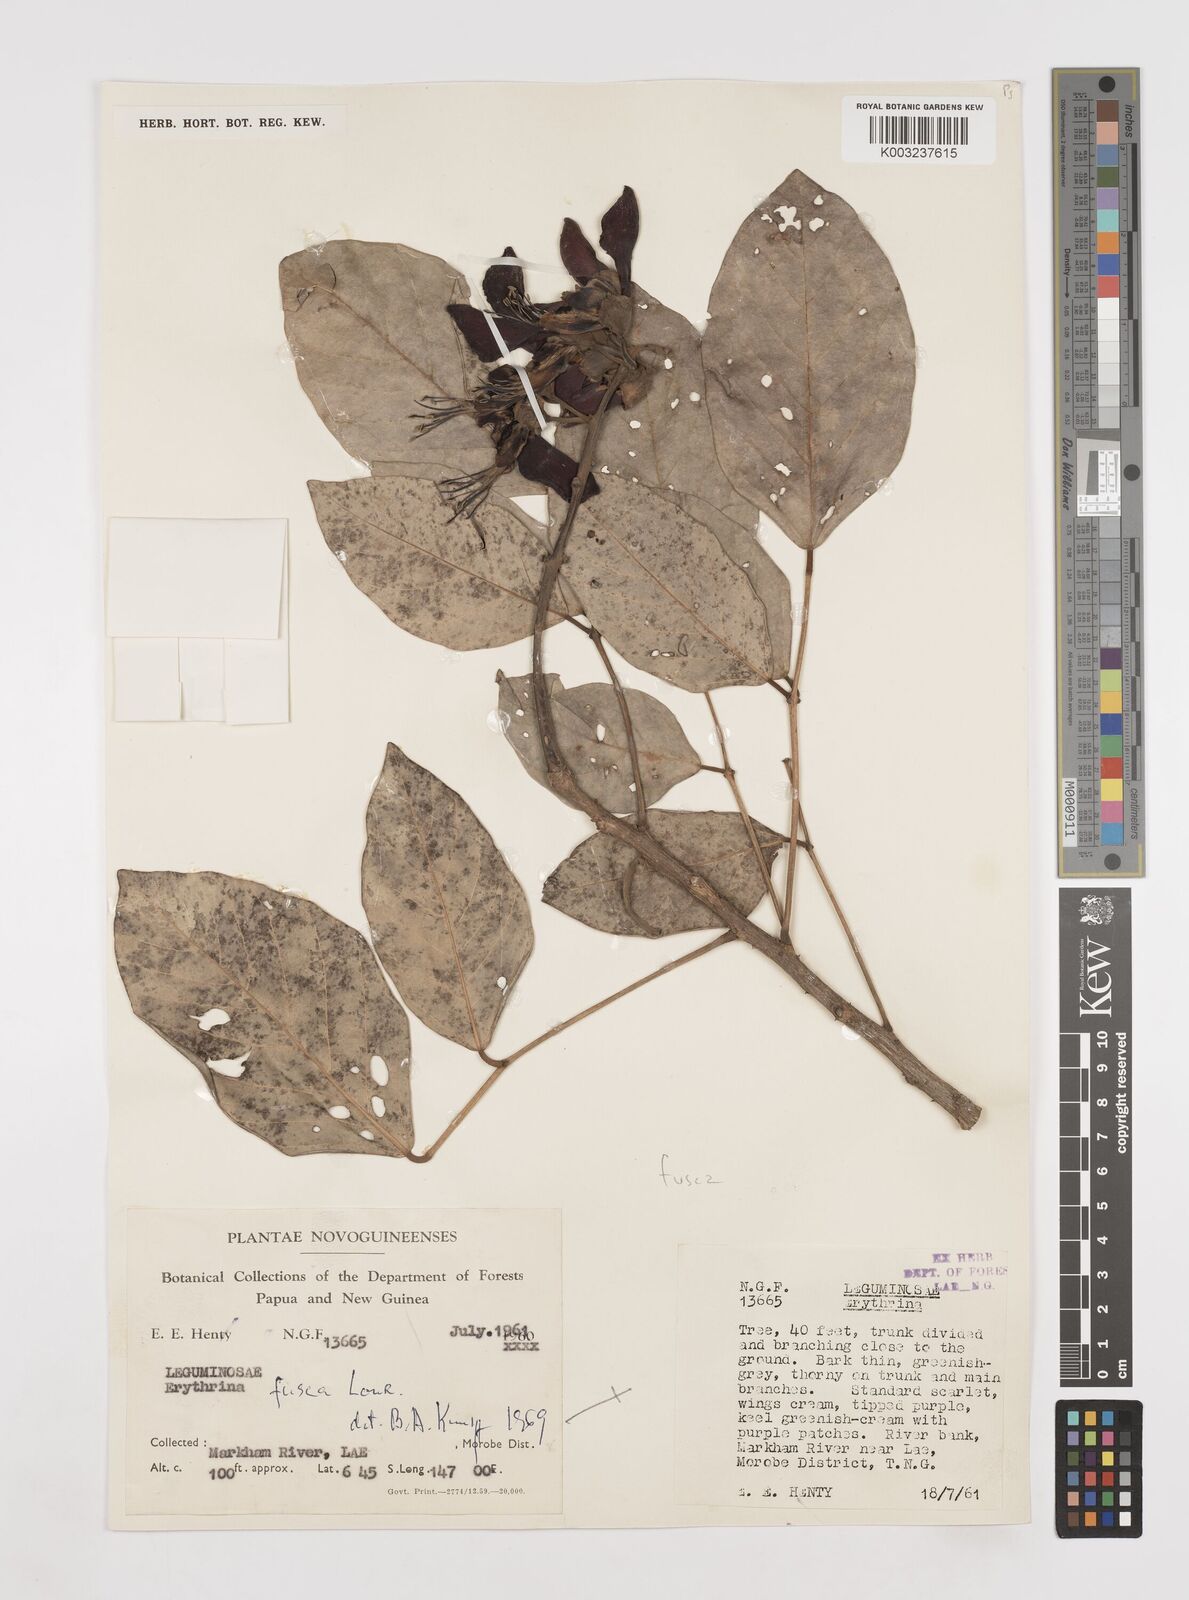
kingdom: Plantae
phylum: Tracheophyta
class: Magnoliopsida
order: Fabales
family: Fabaceae
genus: Erythrina
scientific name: Erythrina fusca
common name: Coral-bean
